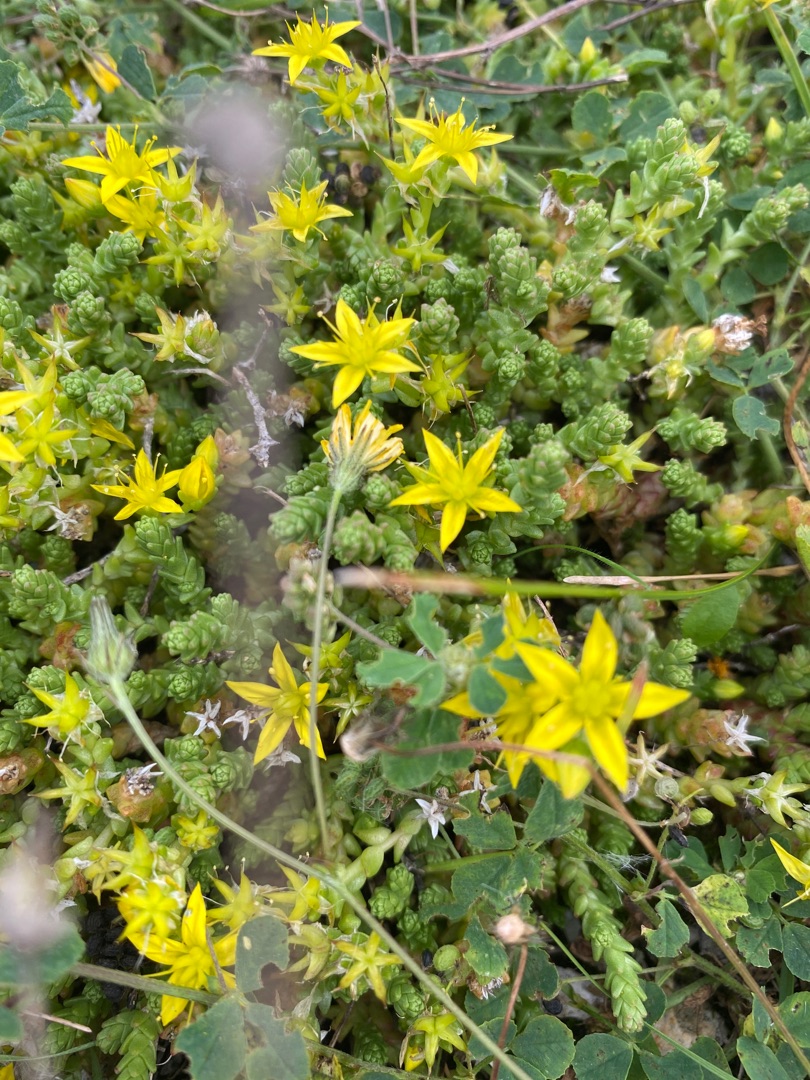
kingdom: Plantae
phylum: Tracheophyta
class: Magnoliopsida
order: Saxifragales
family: Crassulaceae
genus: Sedum
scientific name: Sedum acre
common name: Bidende stenurt
